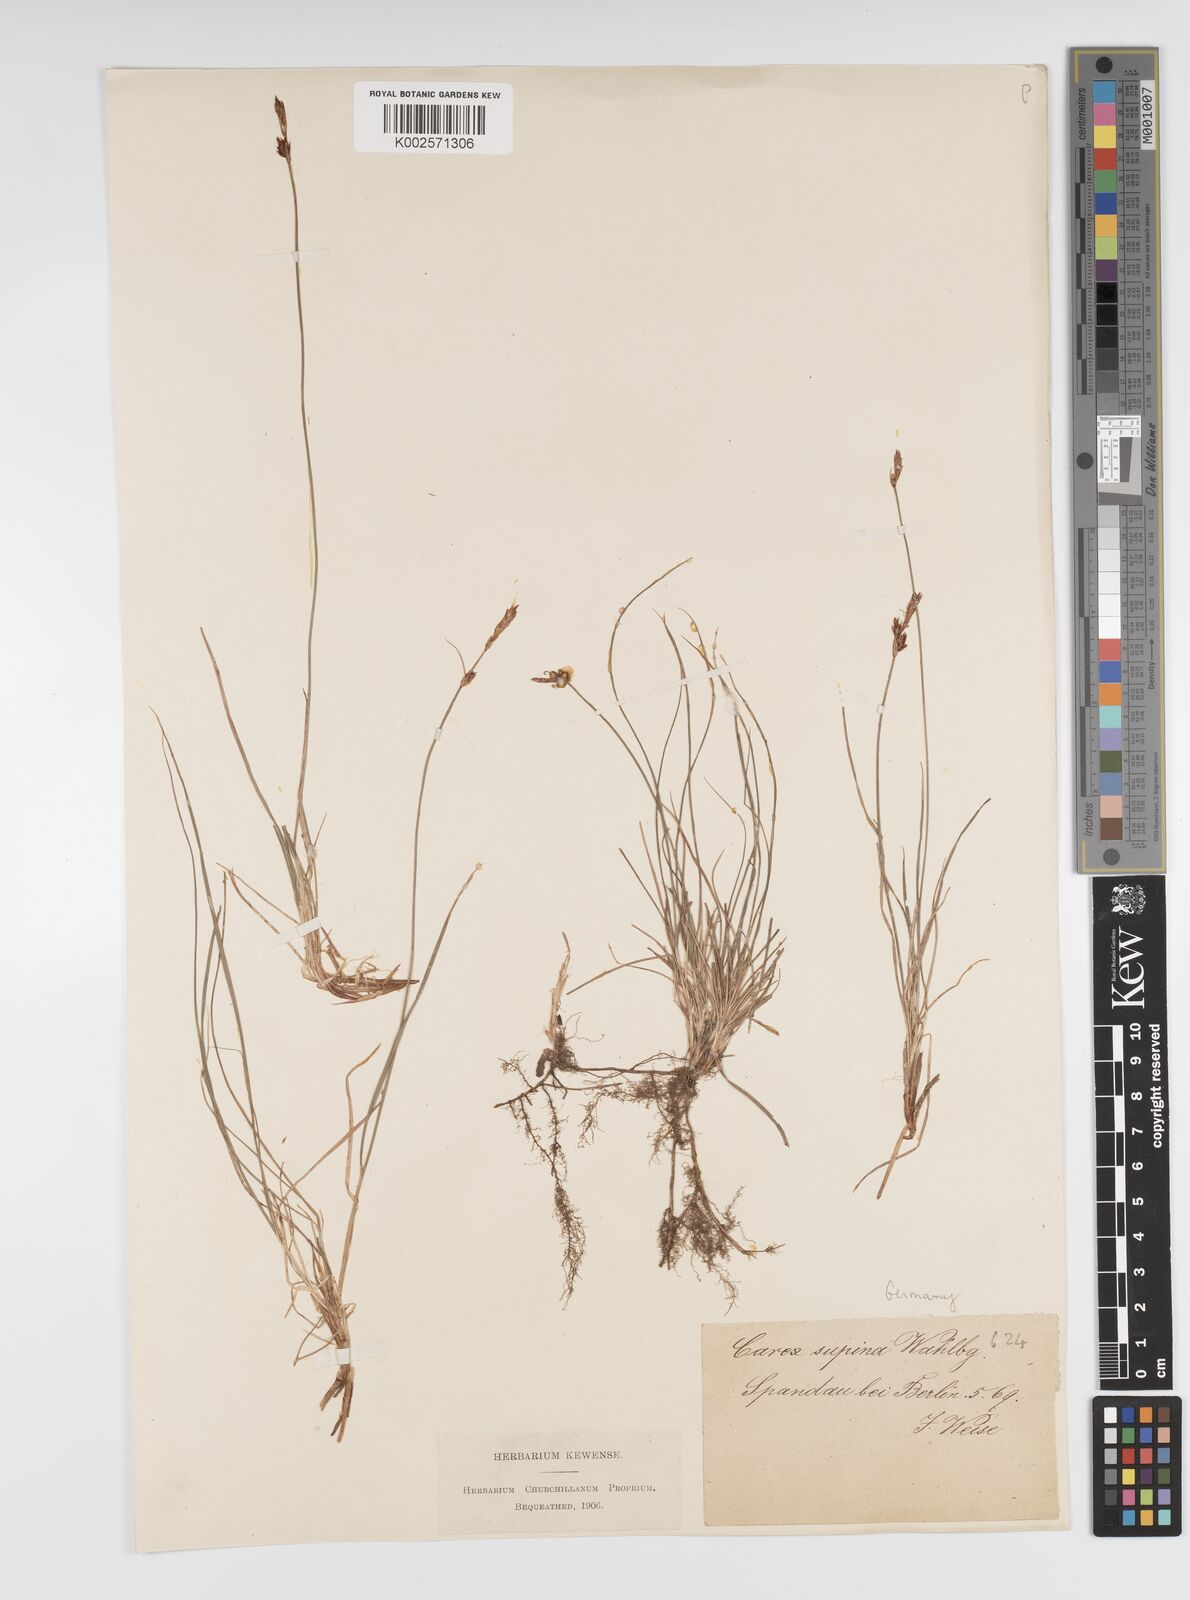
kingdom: Plantae
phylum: Tracheophyta
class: Liliopsida
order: Poales
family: Cyperaceae
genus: Carex
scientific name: Carex supina
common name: Lying-back sedge
